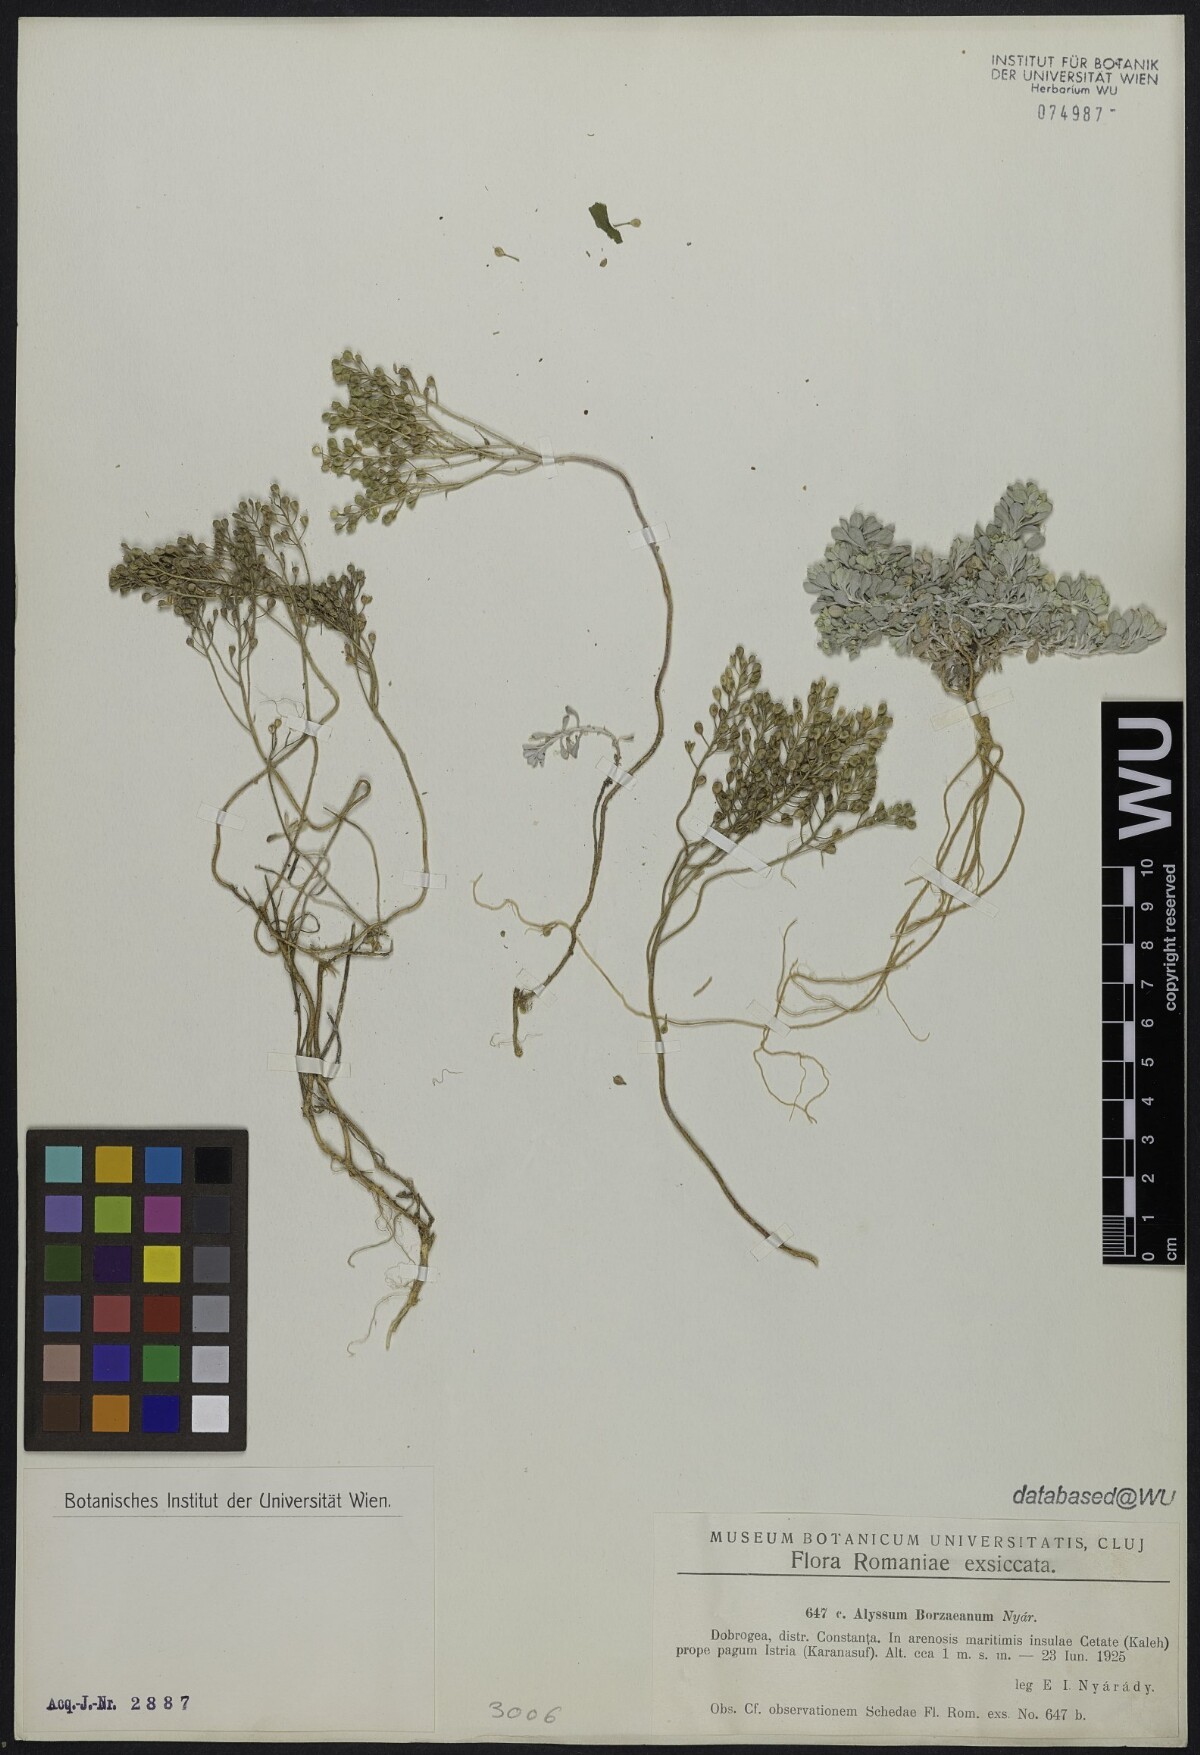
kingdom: Plantae
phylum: Tracheophyta
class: Magnoliopsida
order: Brassicales
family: Brassicaceae
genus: Odontarrhena
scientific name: Odontarrhena borzeana
